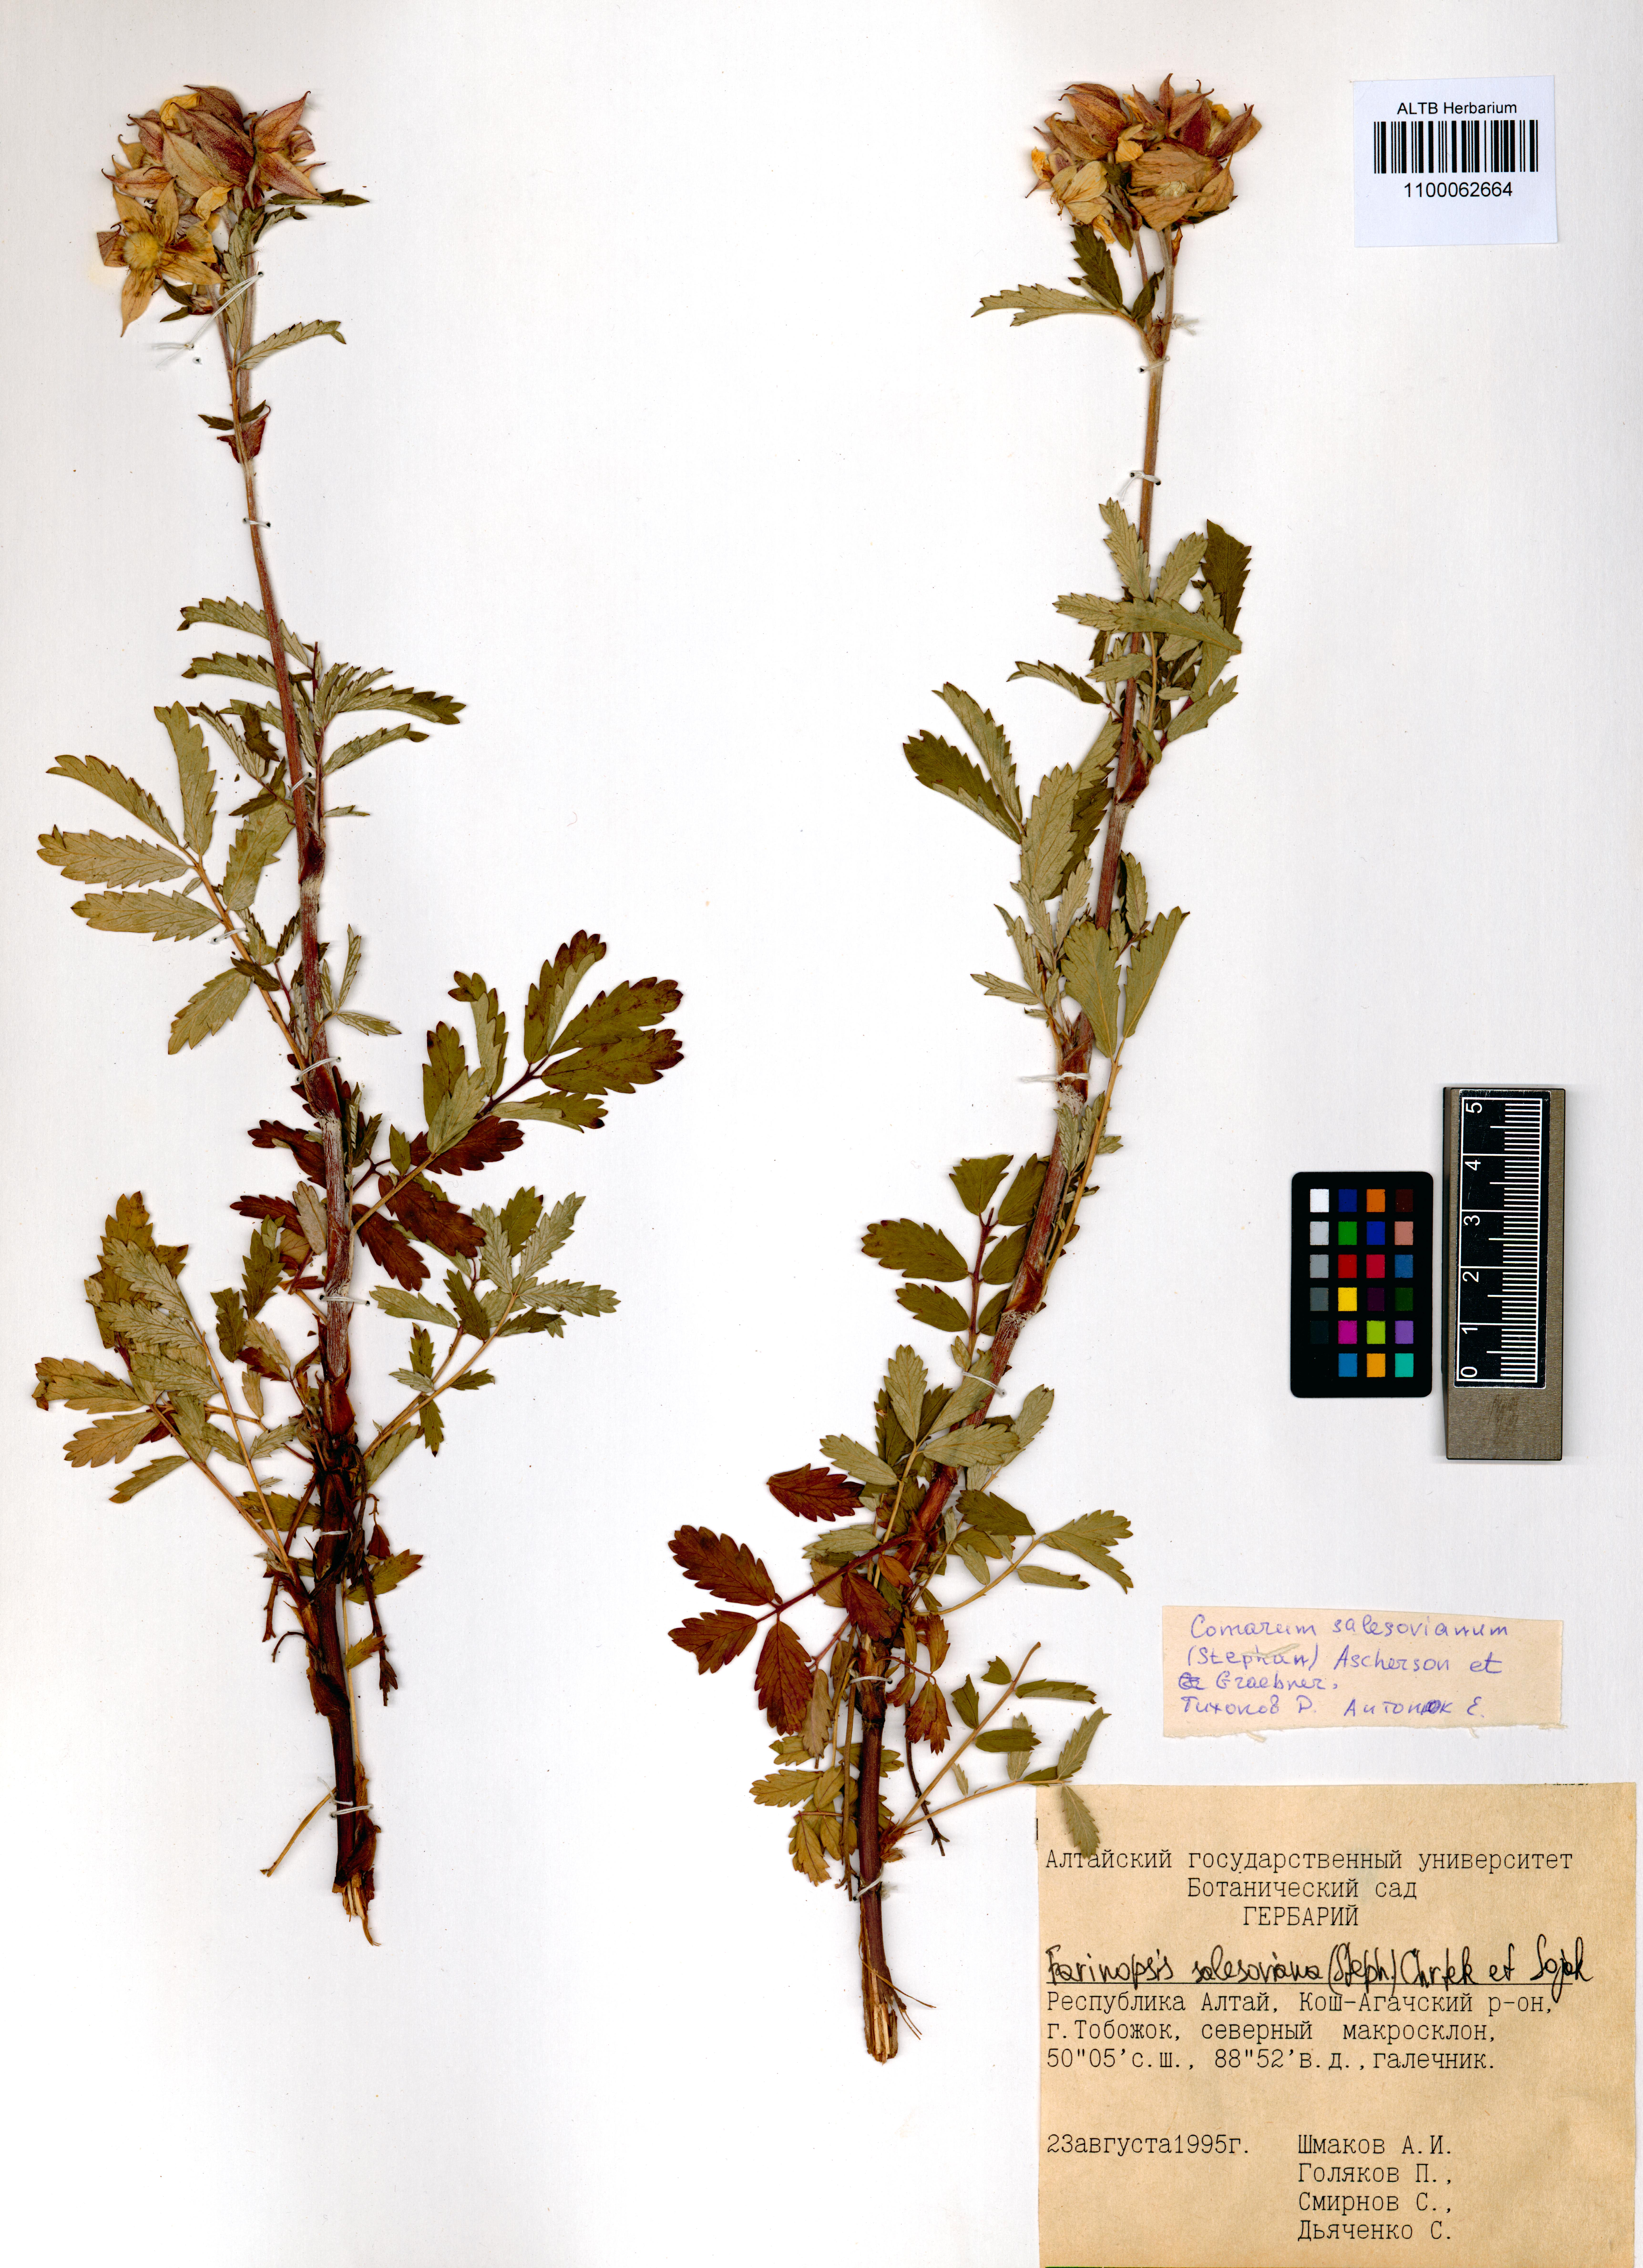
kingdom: Plantae
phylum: Tracheophyta
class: Magnoliopsida
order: Rosales
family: Rosaceae
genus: Farinopsis
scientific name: Farinopsis salesoviana
